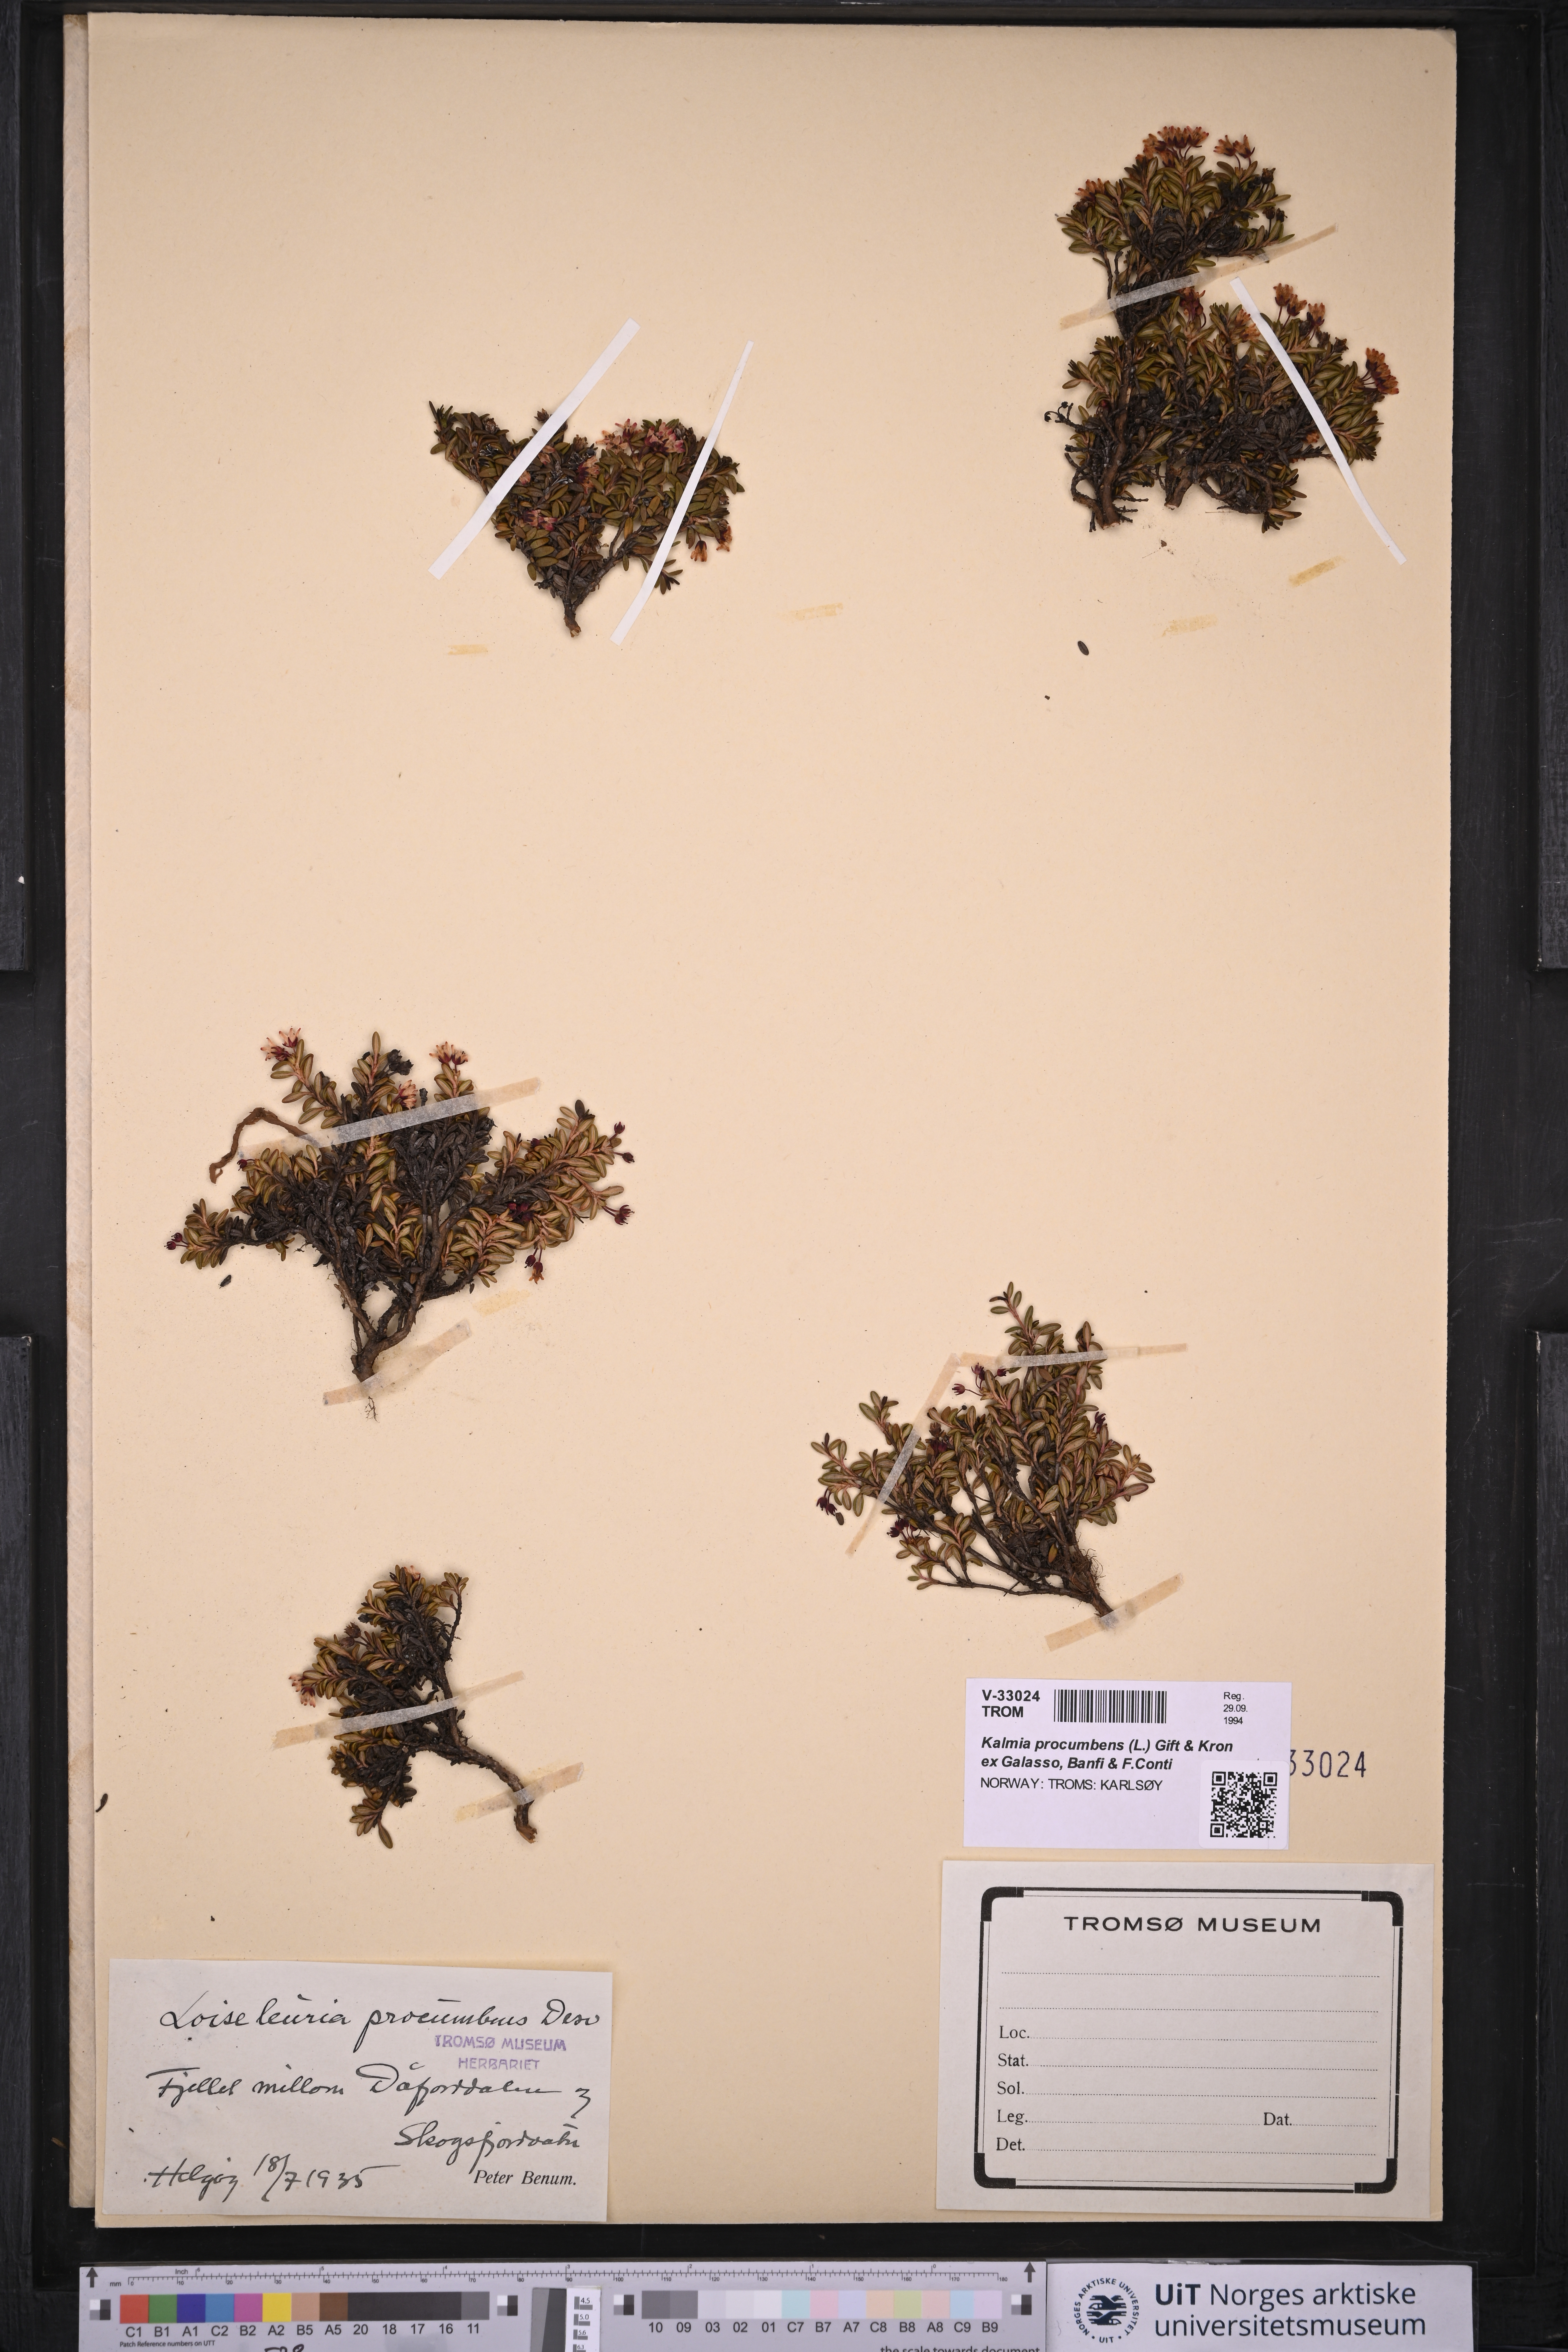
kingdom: Plantae
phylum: Tracheophyta
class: Magnoliopsida
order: Ericales
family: Ericaceae
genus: Kalmia
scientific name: Kalmia procumbens
